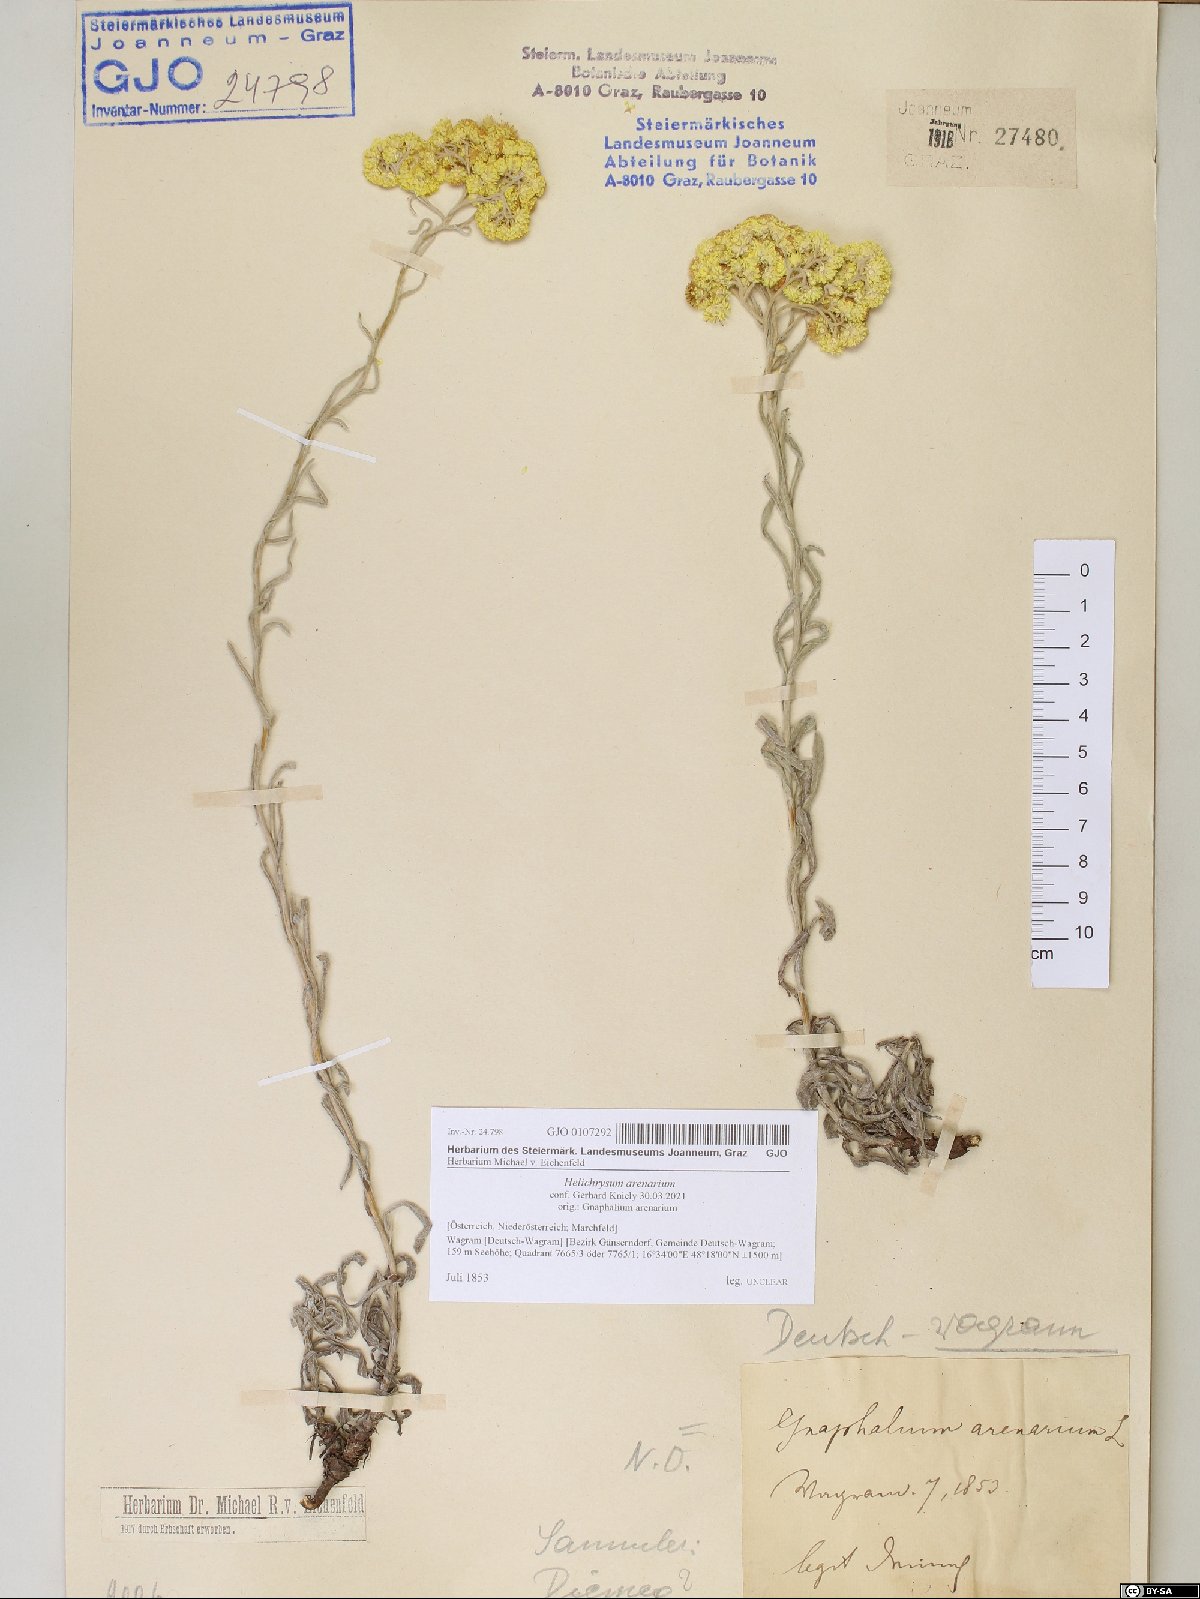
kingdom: Plantae
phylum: Tracheophyta
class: Magnoliopsida
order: Asterales
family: Asteraceae
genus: Helichrysum
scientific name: Helichrysum arenarium
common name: Strawflower
